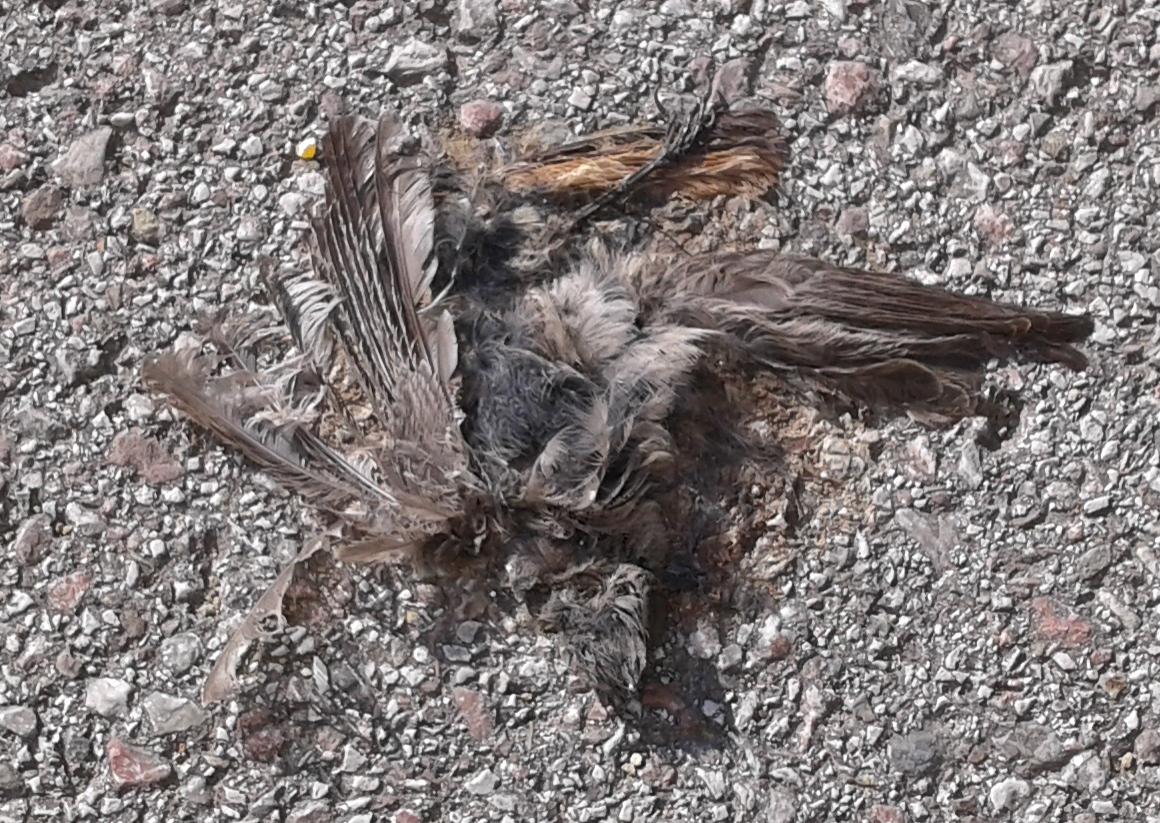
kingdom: Animalia
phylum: Chordata
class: Aves
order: Passeriformes
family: Muscicapidae
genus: Phoenicurus
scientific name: Phoenicurus
